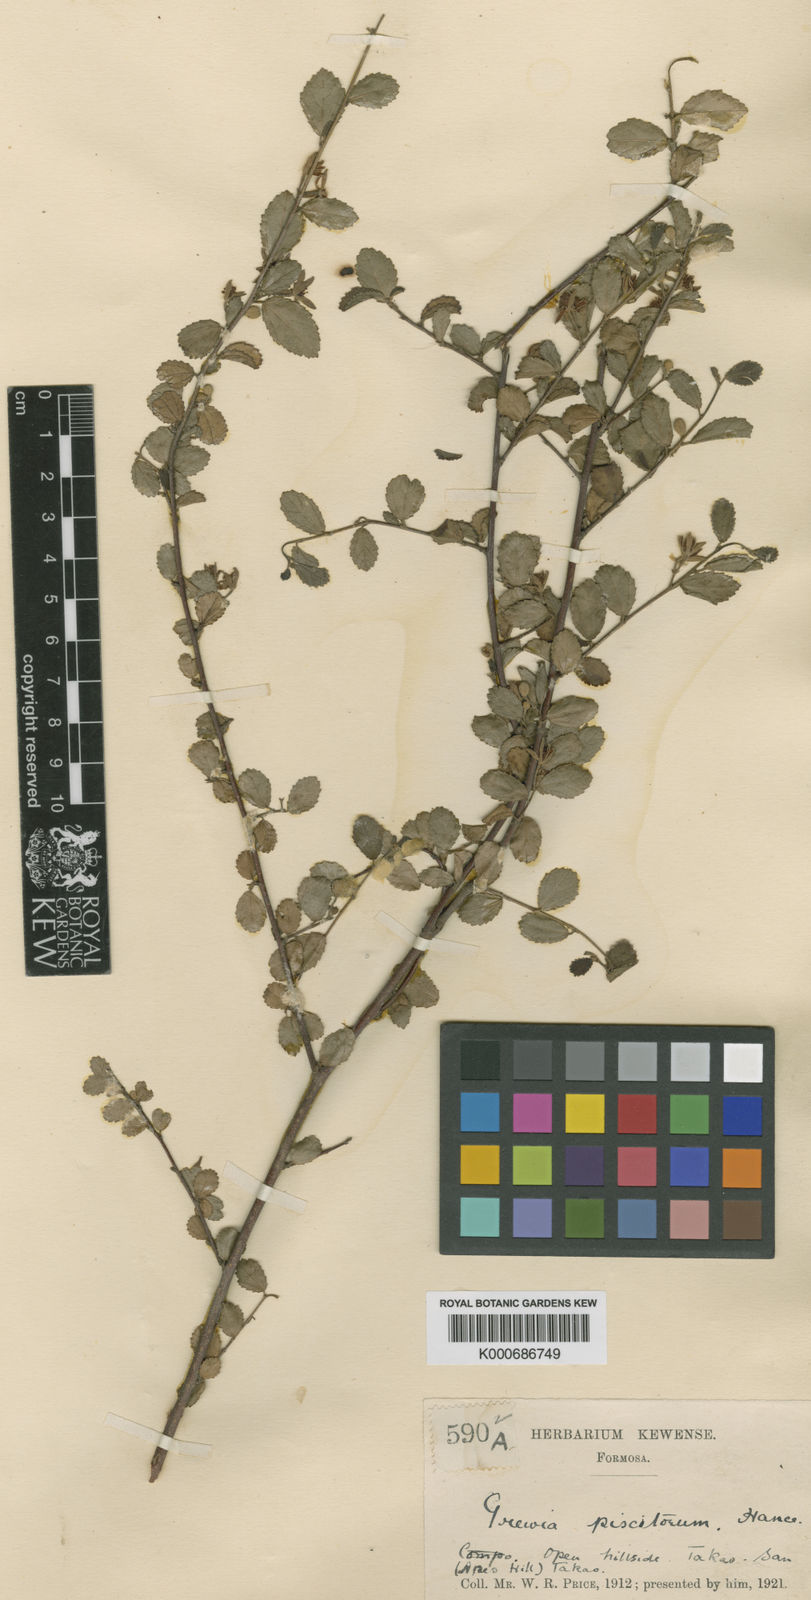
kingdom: Plantae
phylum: Tracheophyta
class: Magnoliopsida
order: Malvales
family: Malvaceae
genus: Grewia
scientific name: Grewia piscatorum
